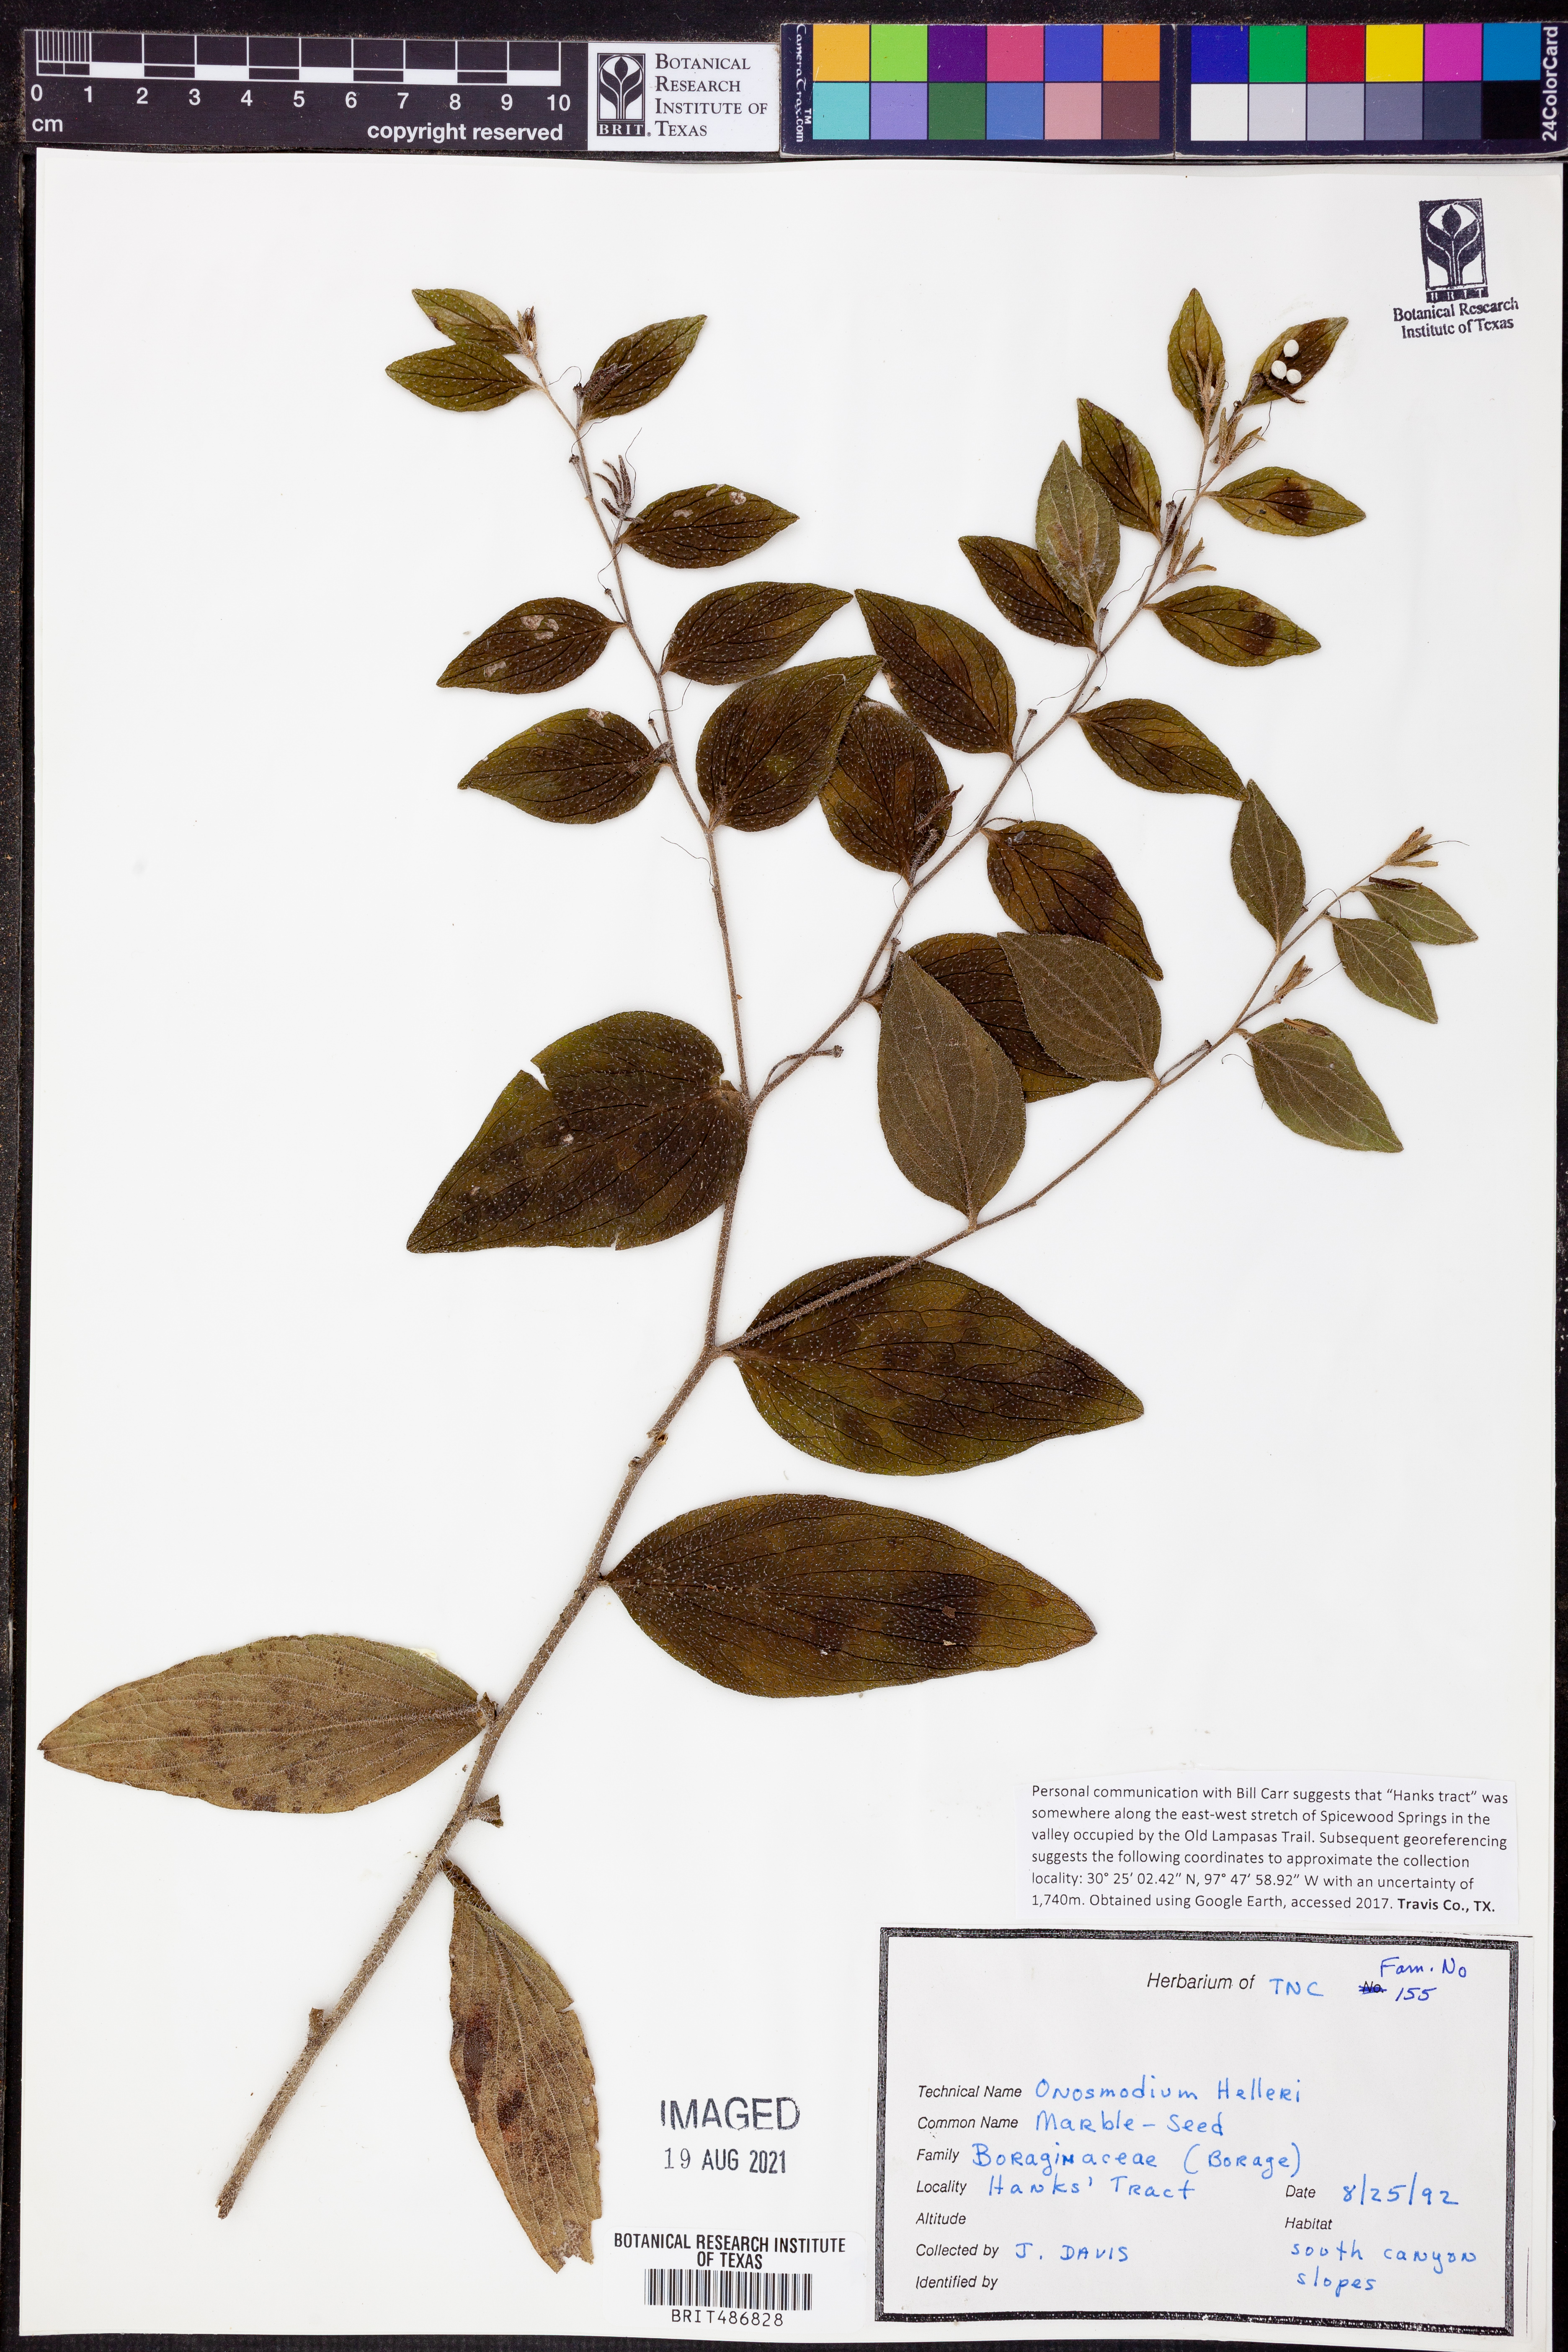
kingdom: Plantae
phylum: Tracheophyta
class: Magnoliopsida
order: Boraginales
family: Boraginaceae
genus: Lithospermum
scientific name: Lithospermum helleri
